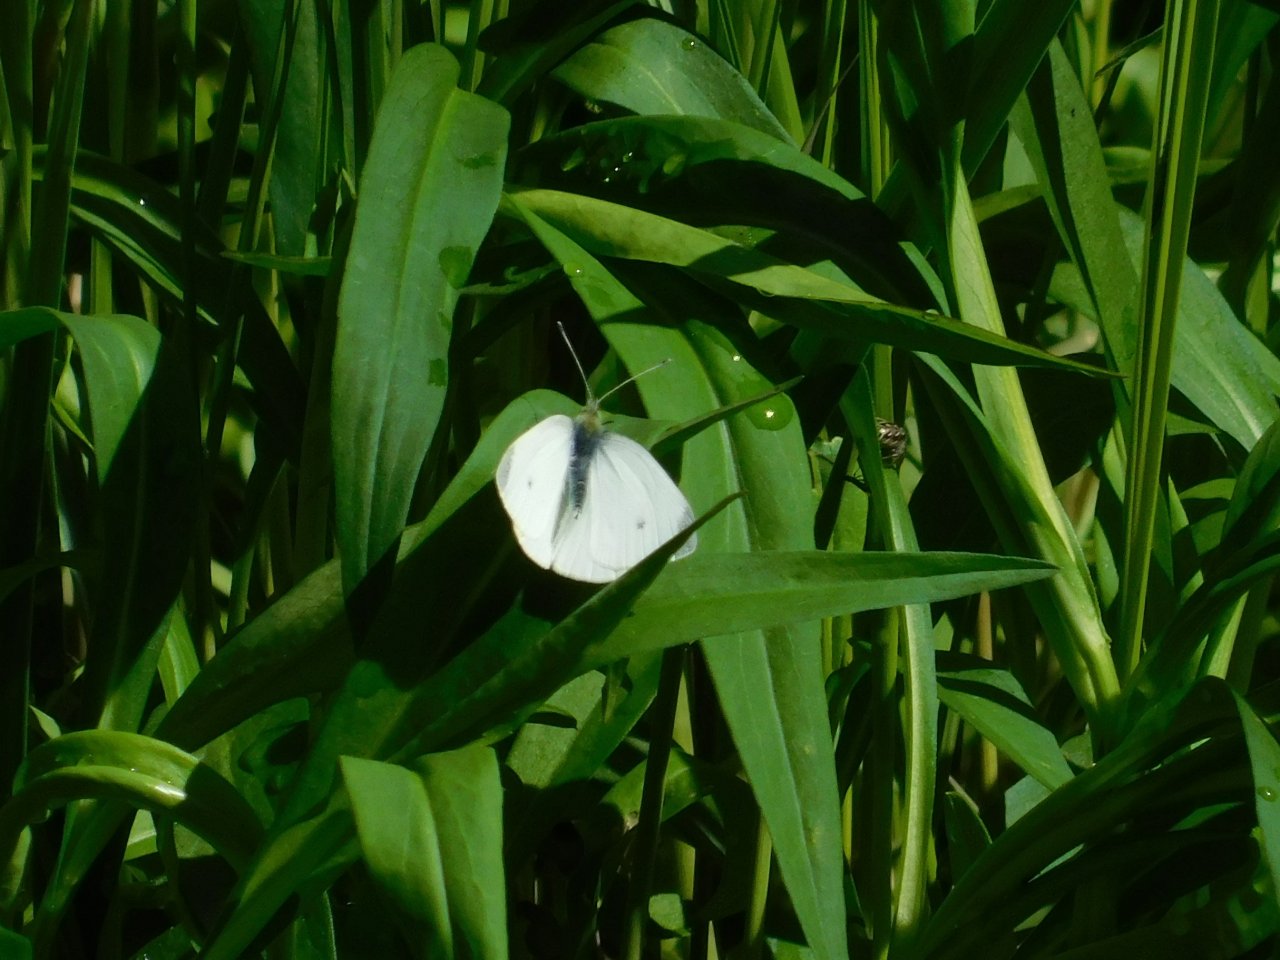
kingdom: Animalia
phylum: Arthropoda
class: Insecta
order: Lepidoptera
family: Pieridae
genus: Pieris
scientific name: Pieris rapae
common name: Cabbage White
